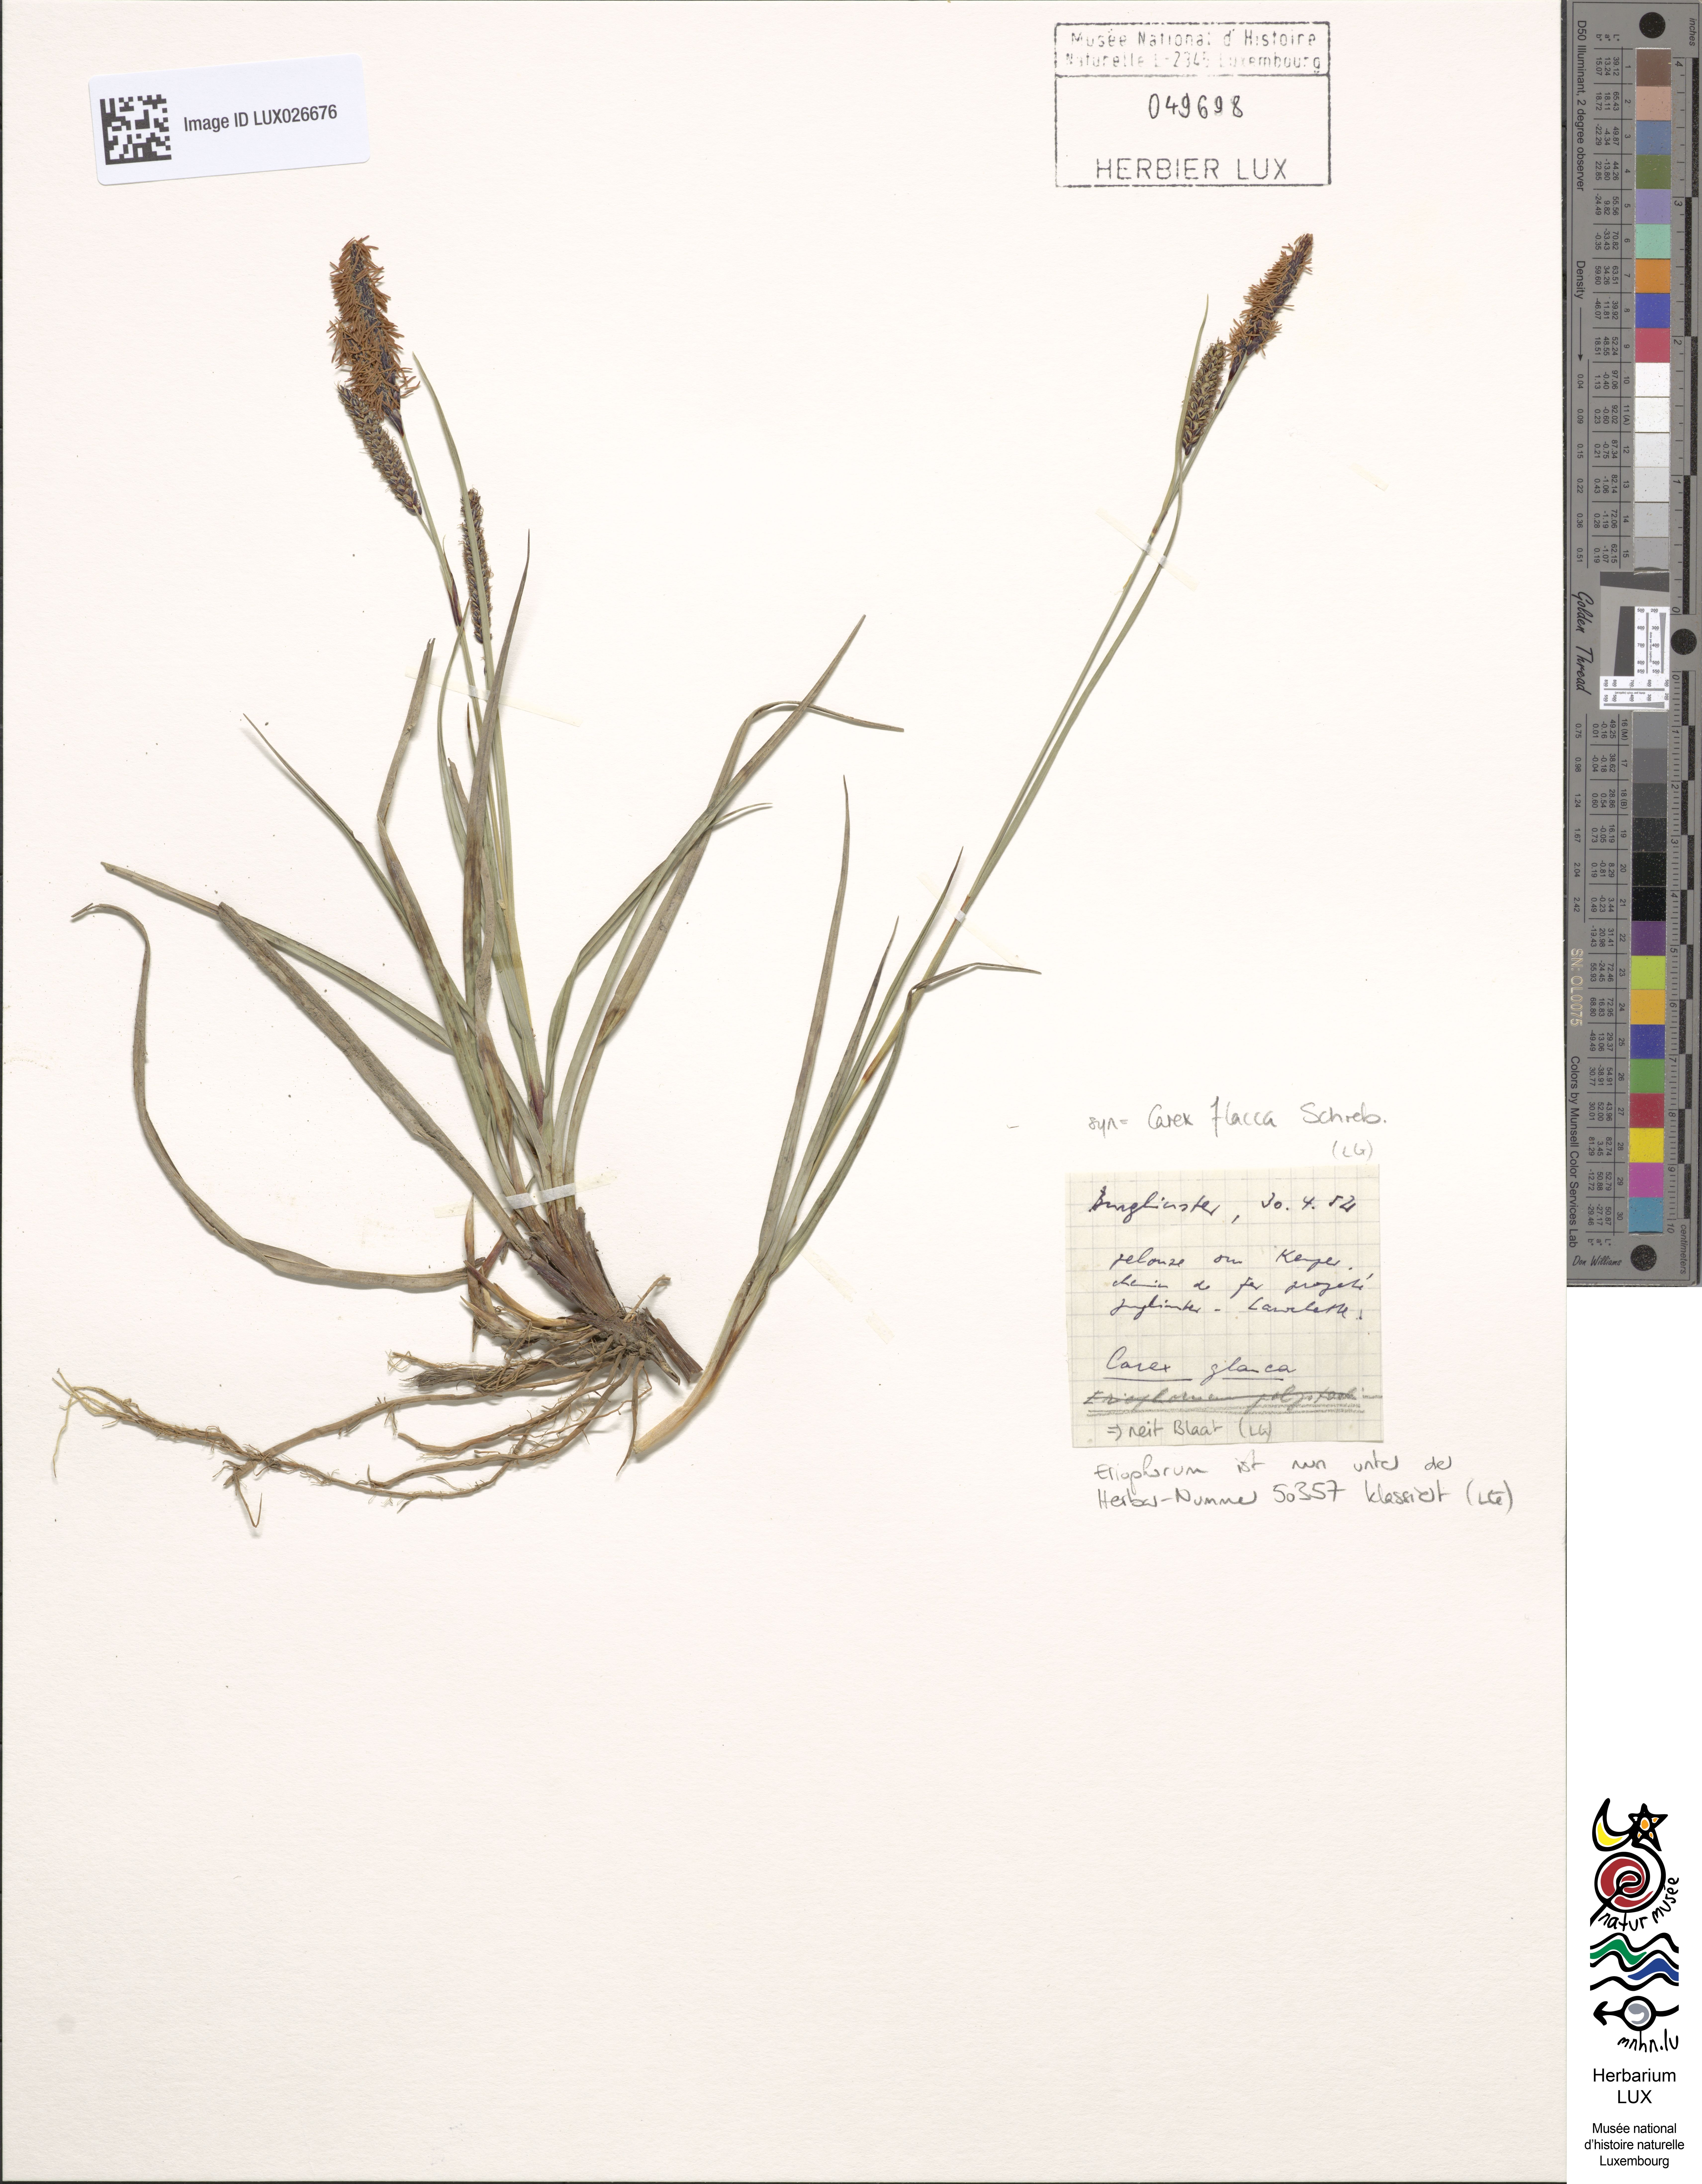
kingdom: Plantae
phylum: Tracheophyta
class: Liliopsida
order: Poales
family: Cyperaceae
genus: Carex
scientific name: Carex flacca
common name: Glaucous sedge
